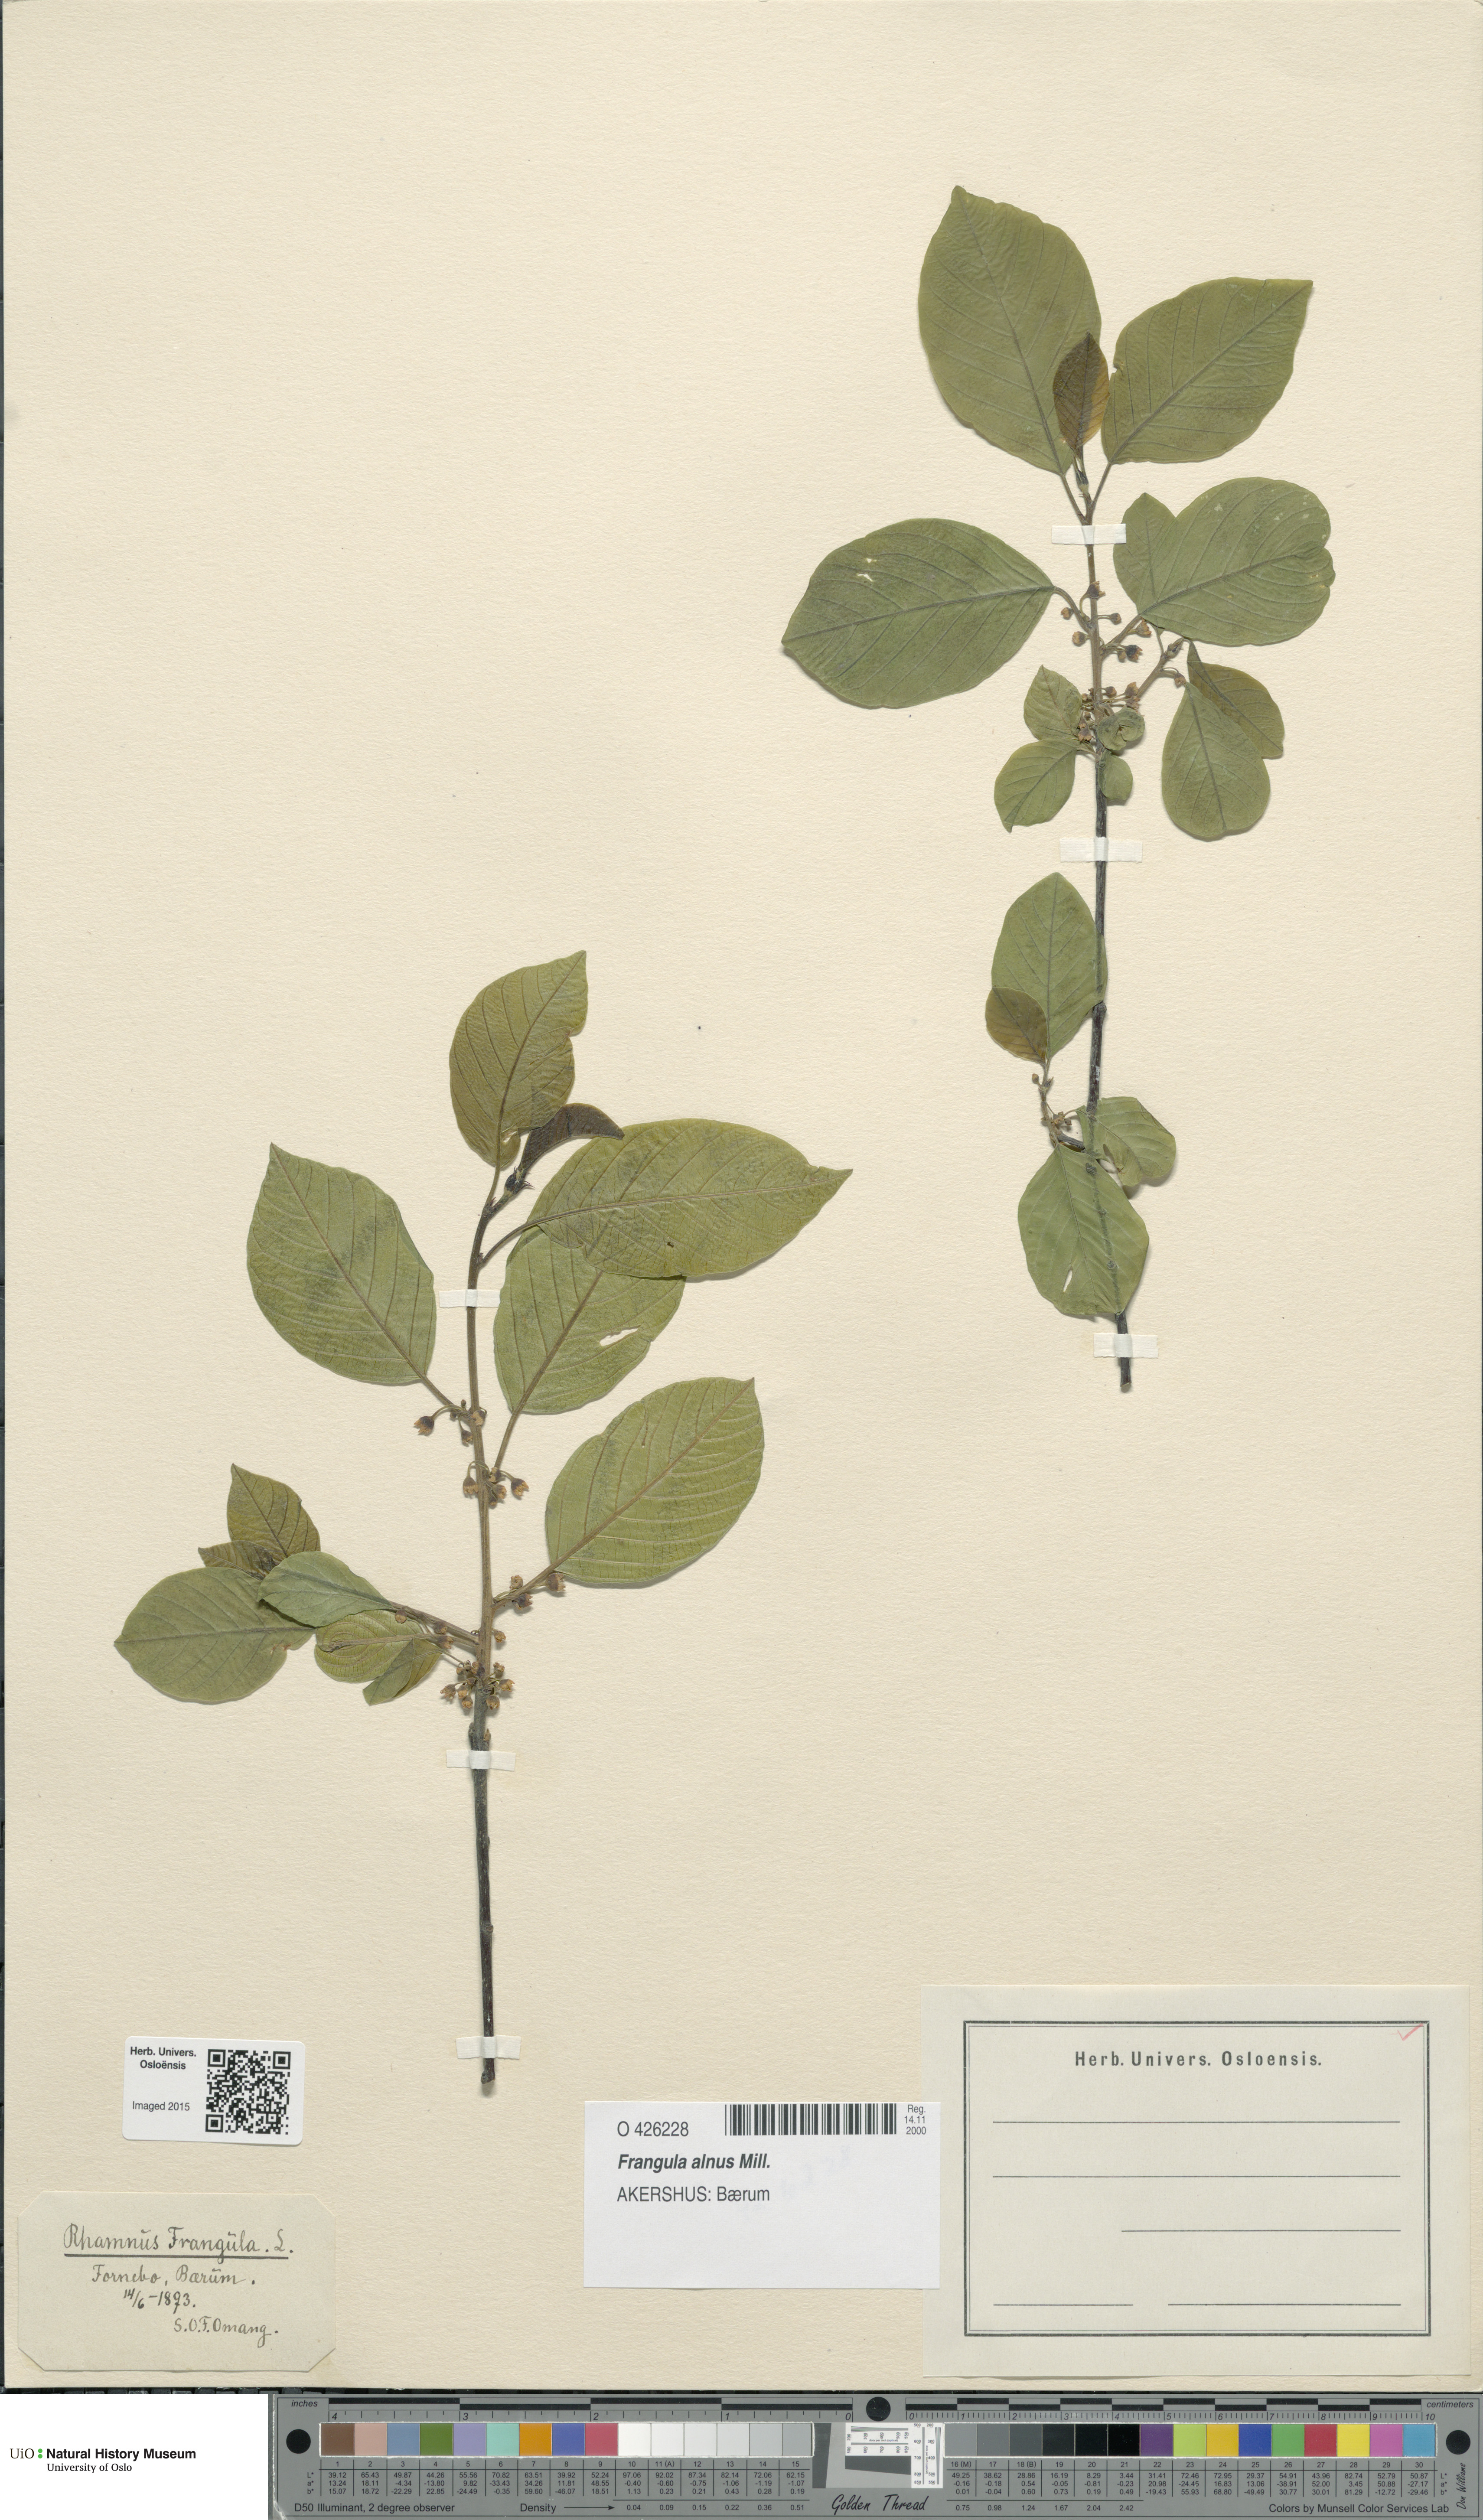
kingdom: Plantae
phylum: Tracheophyta
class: Magnoliopsida
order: Rosales
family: Rhamnaceae
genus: Frangula
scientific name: Frangula alnus
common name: Alder buckthorn
